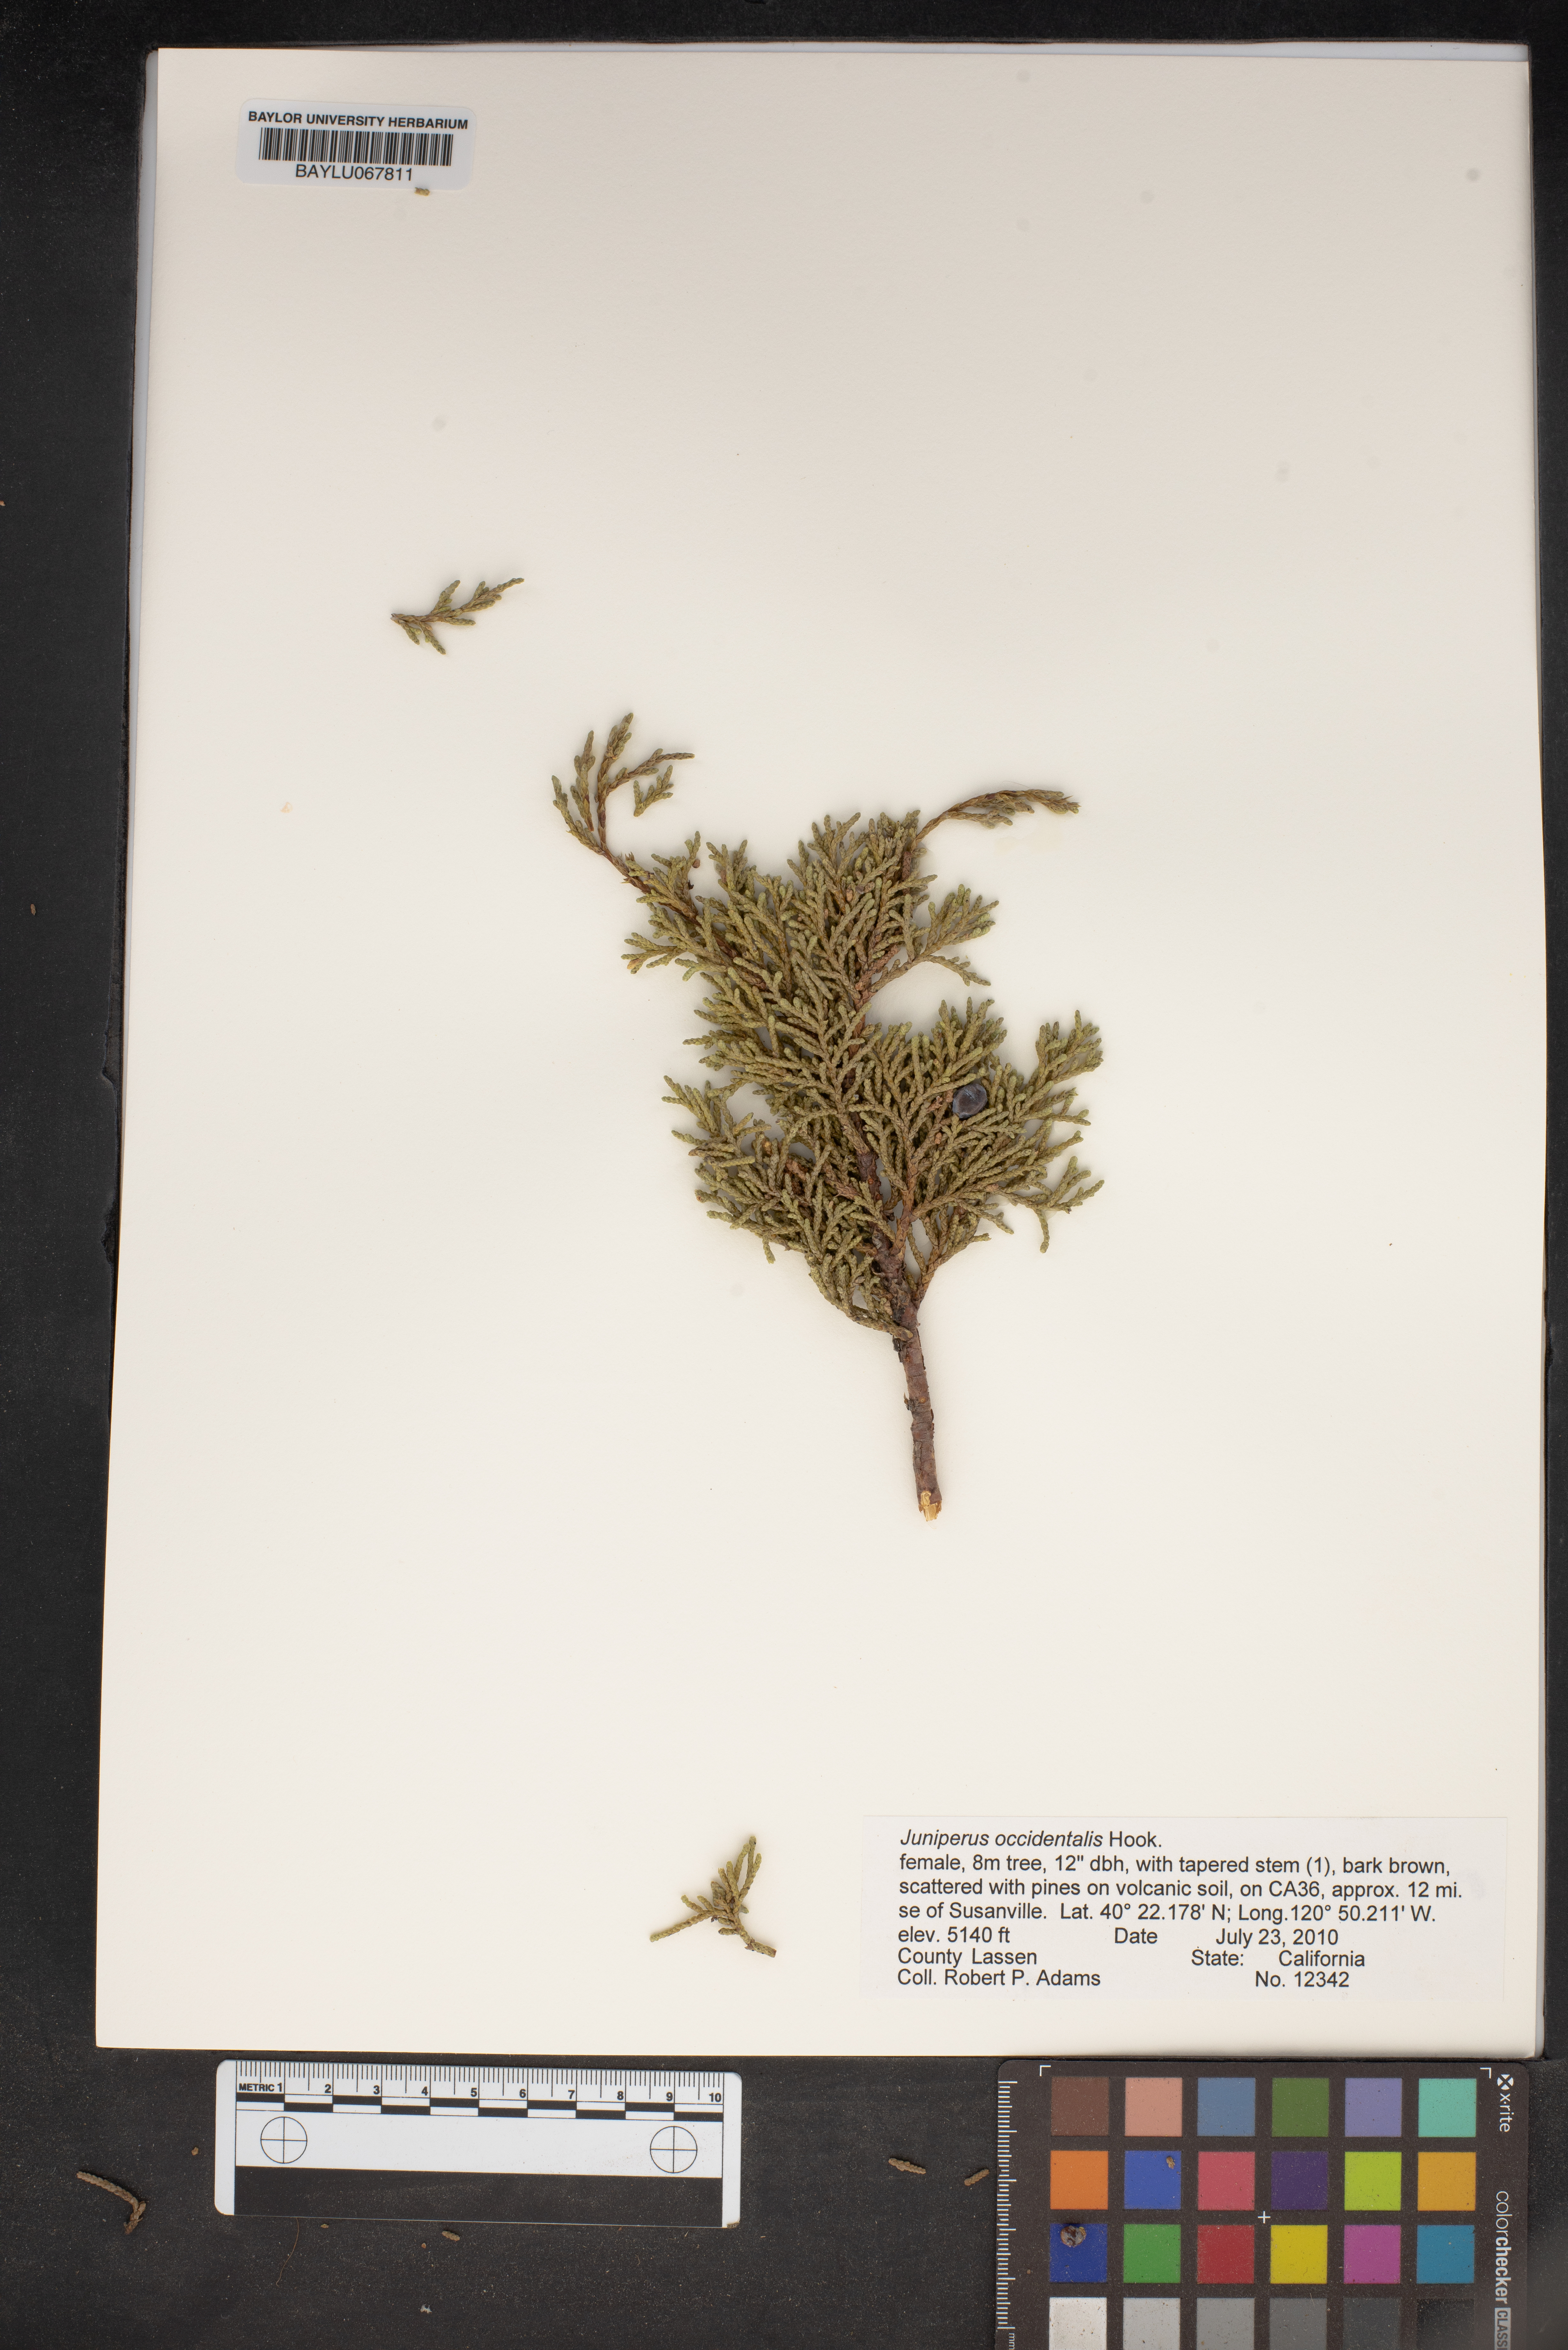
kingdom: Plantae
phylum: Tracheophyta
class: Pinopsida
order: Pinales
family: Cupressaceae
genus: Juniperus
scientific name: Juniperus occidentalis
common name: Western juniper
